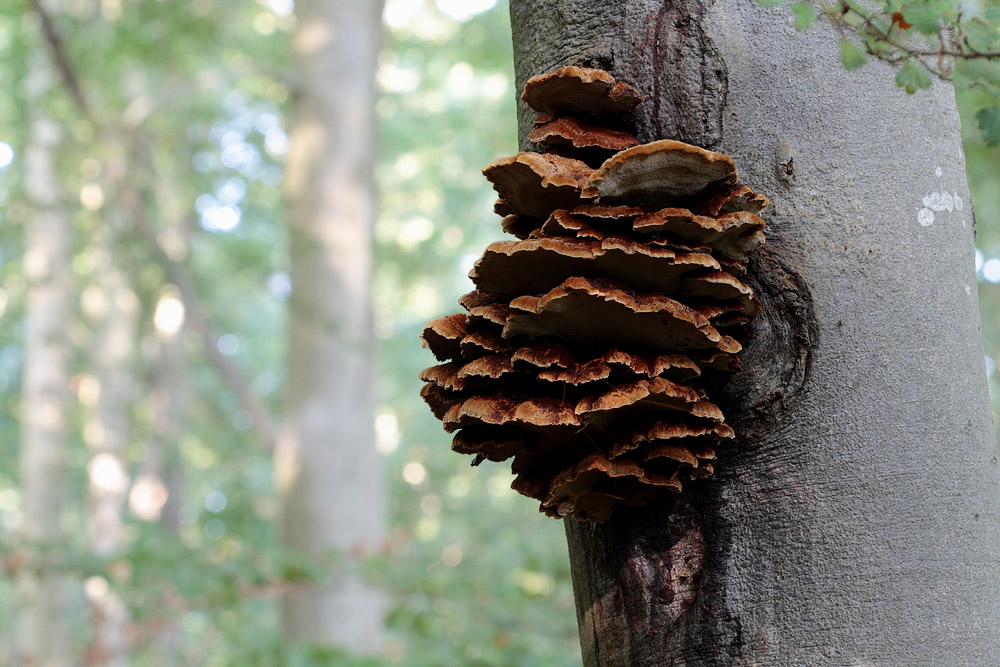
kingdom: Fungi
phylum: Basidiomycota
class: Agaricomycetes
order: Hymenochaetales
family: Hymenochaetaceae
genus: Inonotus
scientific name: Inonotus cuticularis
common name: kroghåret spejlporesvamp
